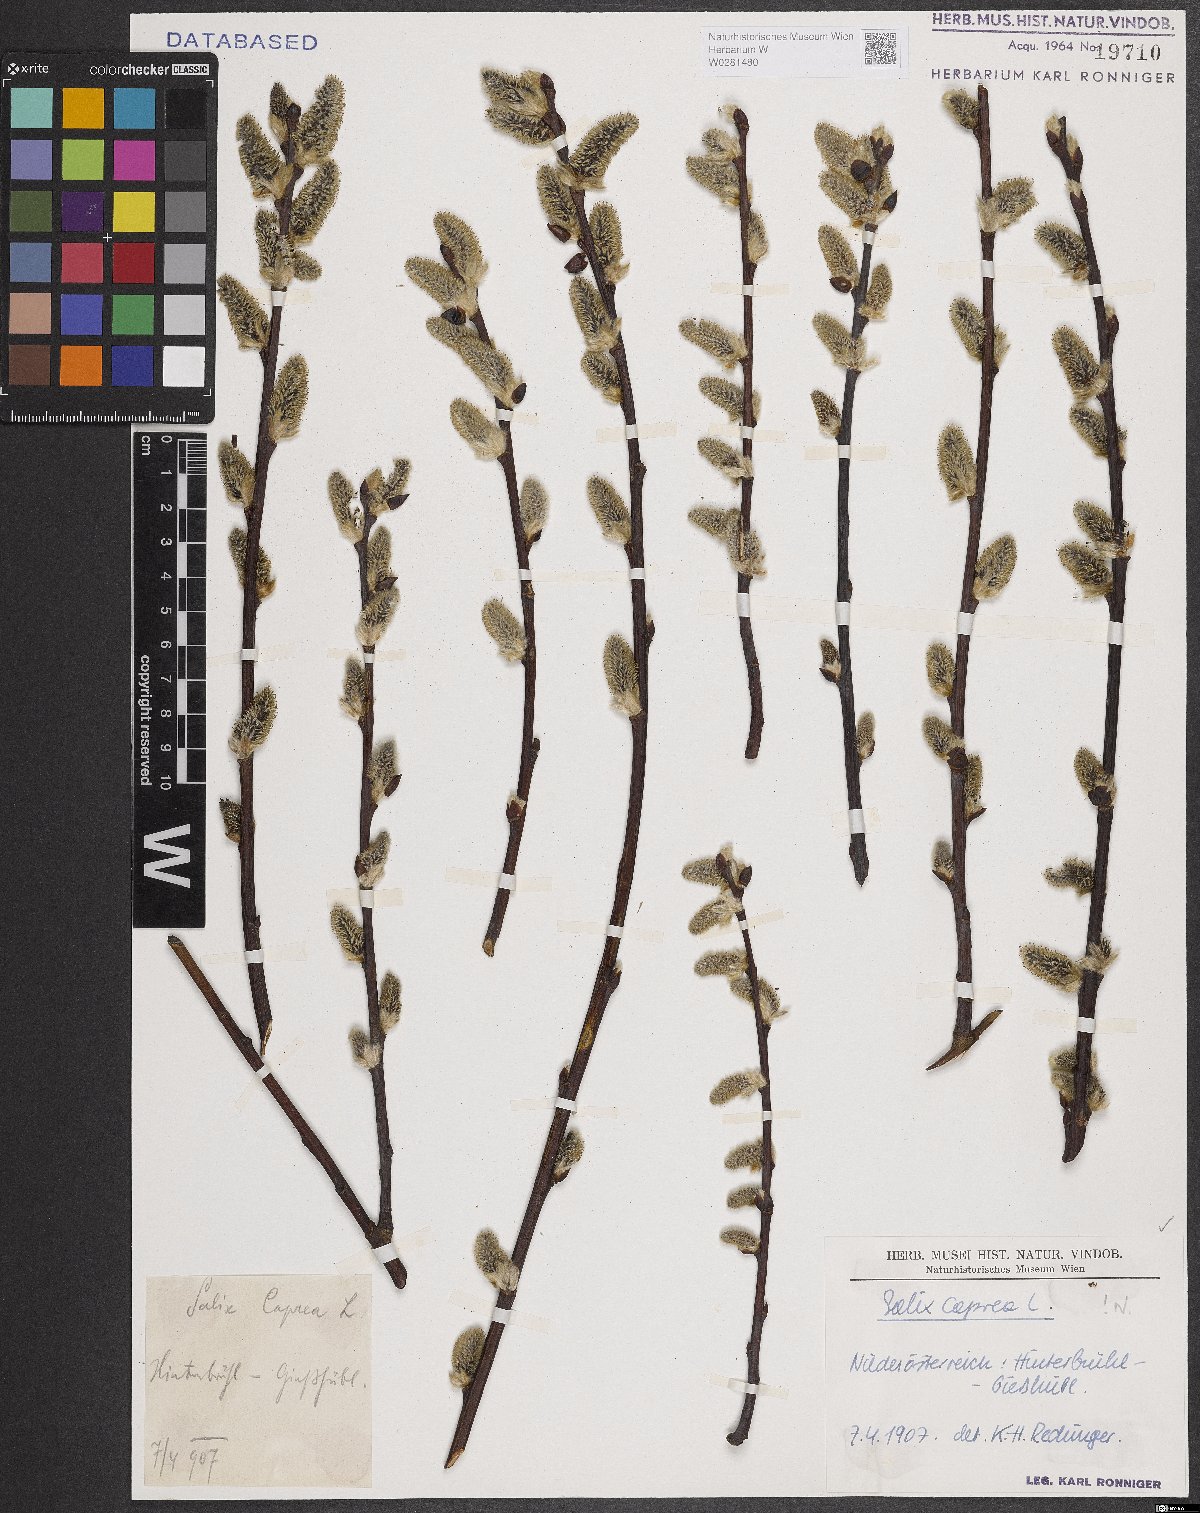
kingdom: Plantae
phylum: Tracheophyta
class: Magnoliopsida
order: Malpighiales
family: Salicaceae
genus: Salix
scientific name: Salix caprea
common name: Goat willow
